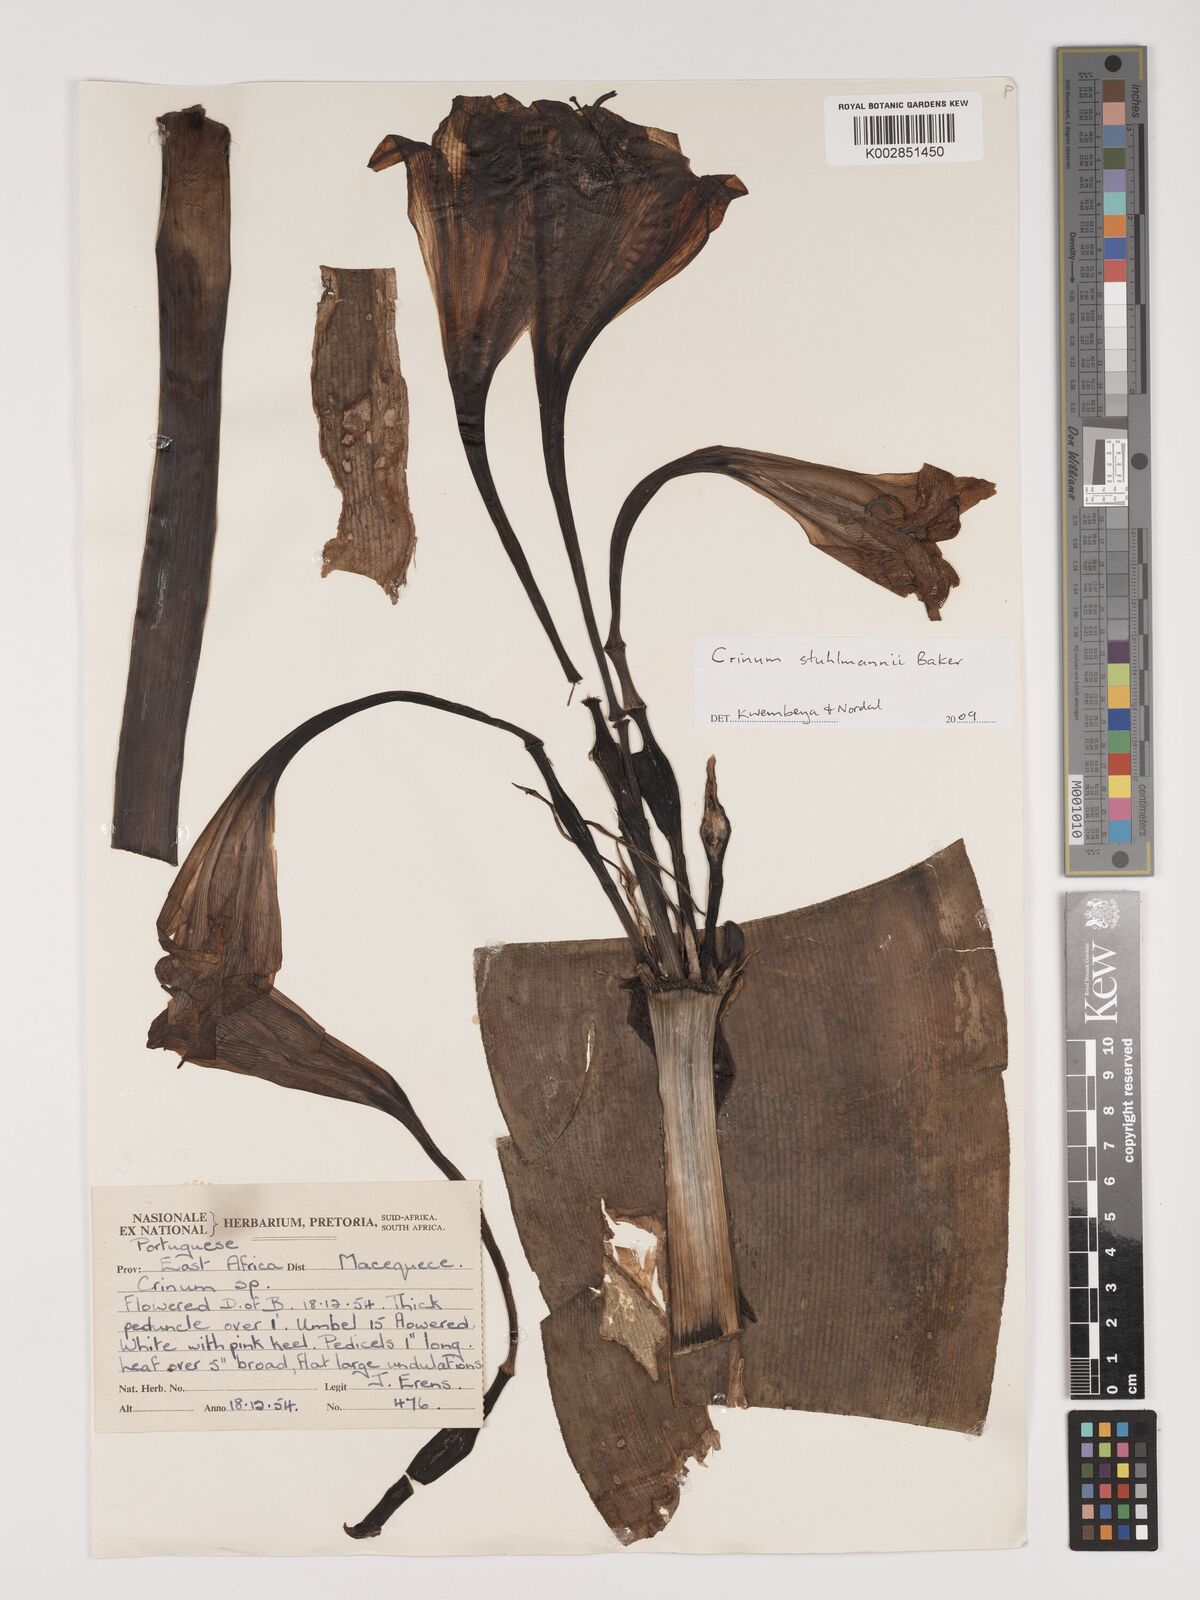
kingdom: Plantae
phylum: Tracheophyta
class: Liliopsida
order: Asparagales
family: Amaryllidaceae
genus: Crinum
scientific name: Crinum stuhlmannii
